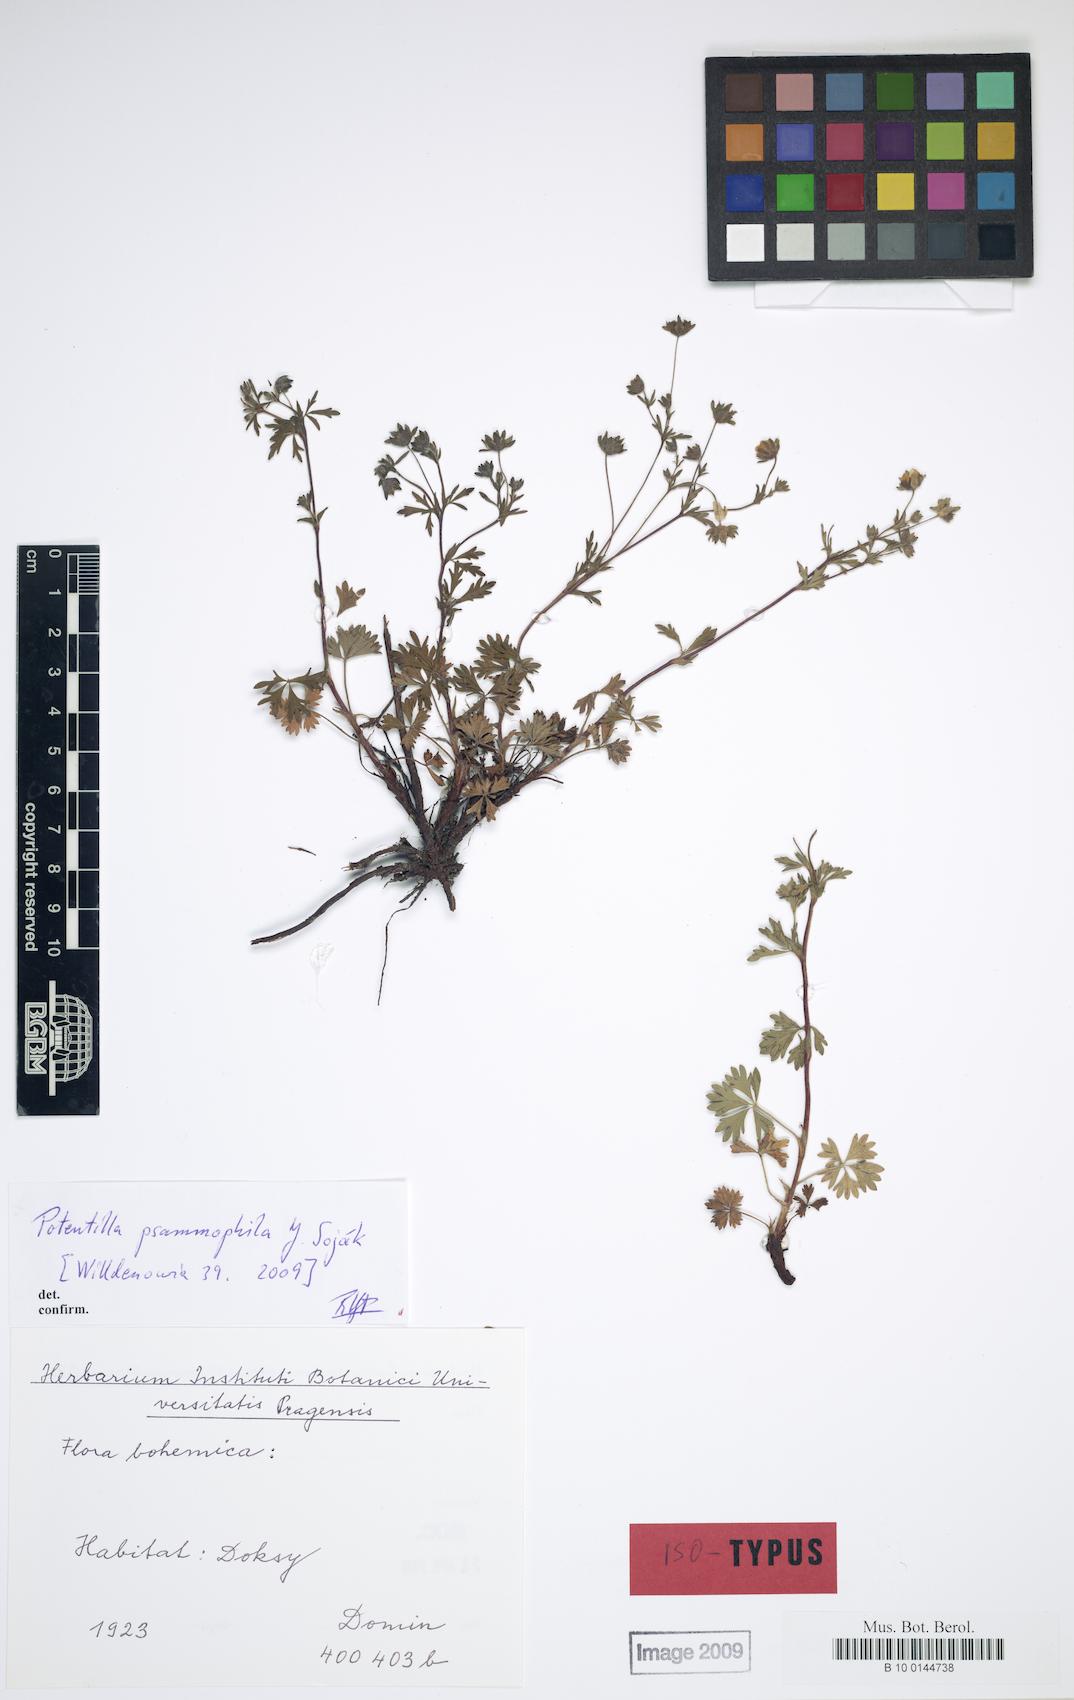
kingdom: Plantae
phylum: Tracheophyta
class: Magnoliopsida
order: Rosales
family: Rosaceae
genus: Potentilla
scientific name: Potentilla psammophila
